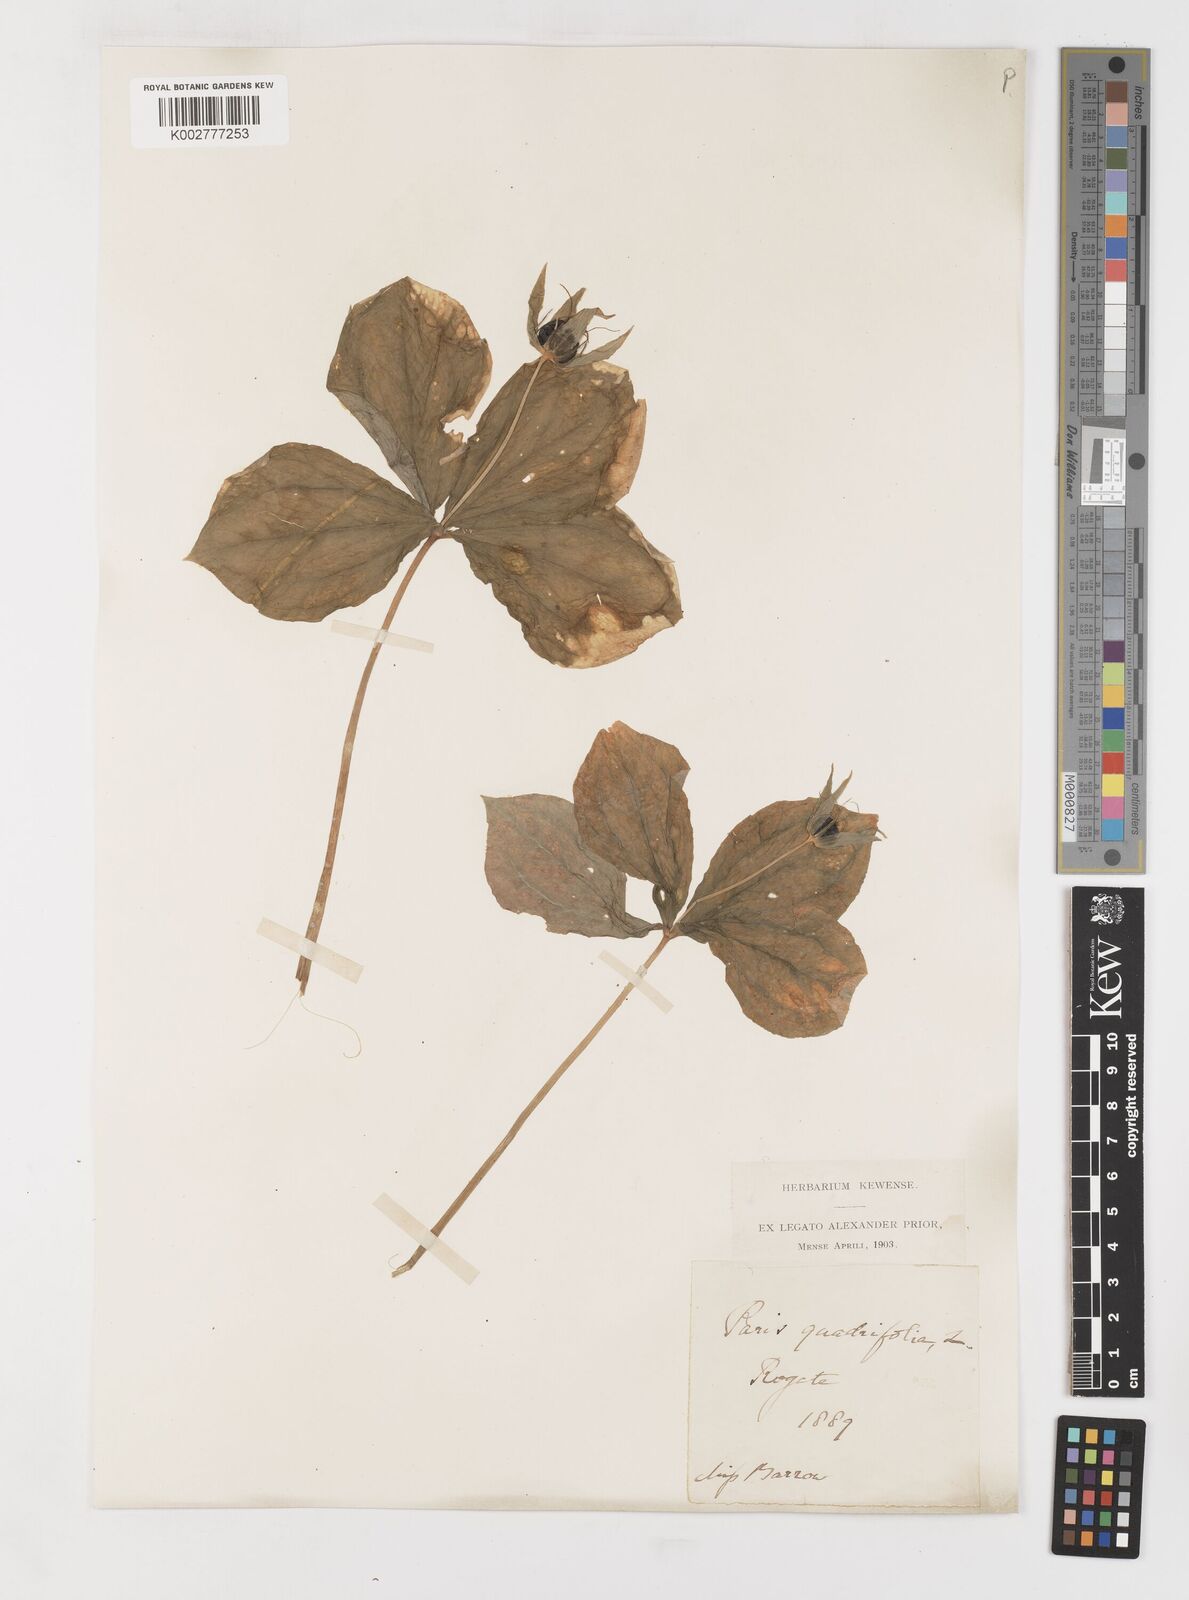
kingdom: Plantae
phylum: Tracheophyta
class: Liliopsida
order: Liliales
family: Melanthiaceae
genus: Paris
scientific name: Paris
